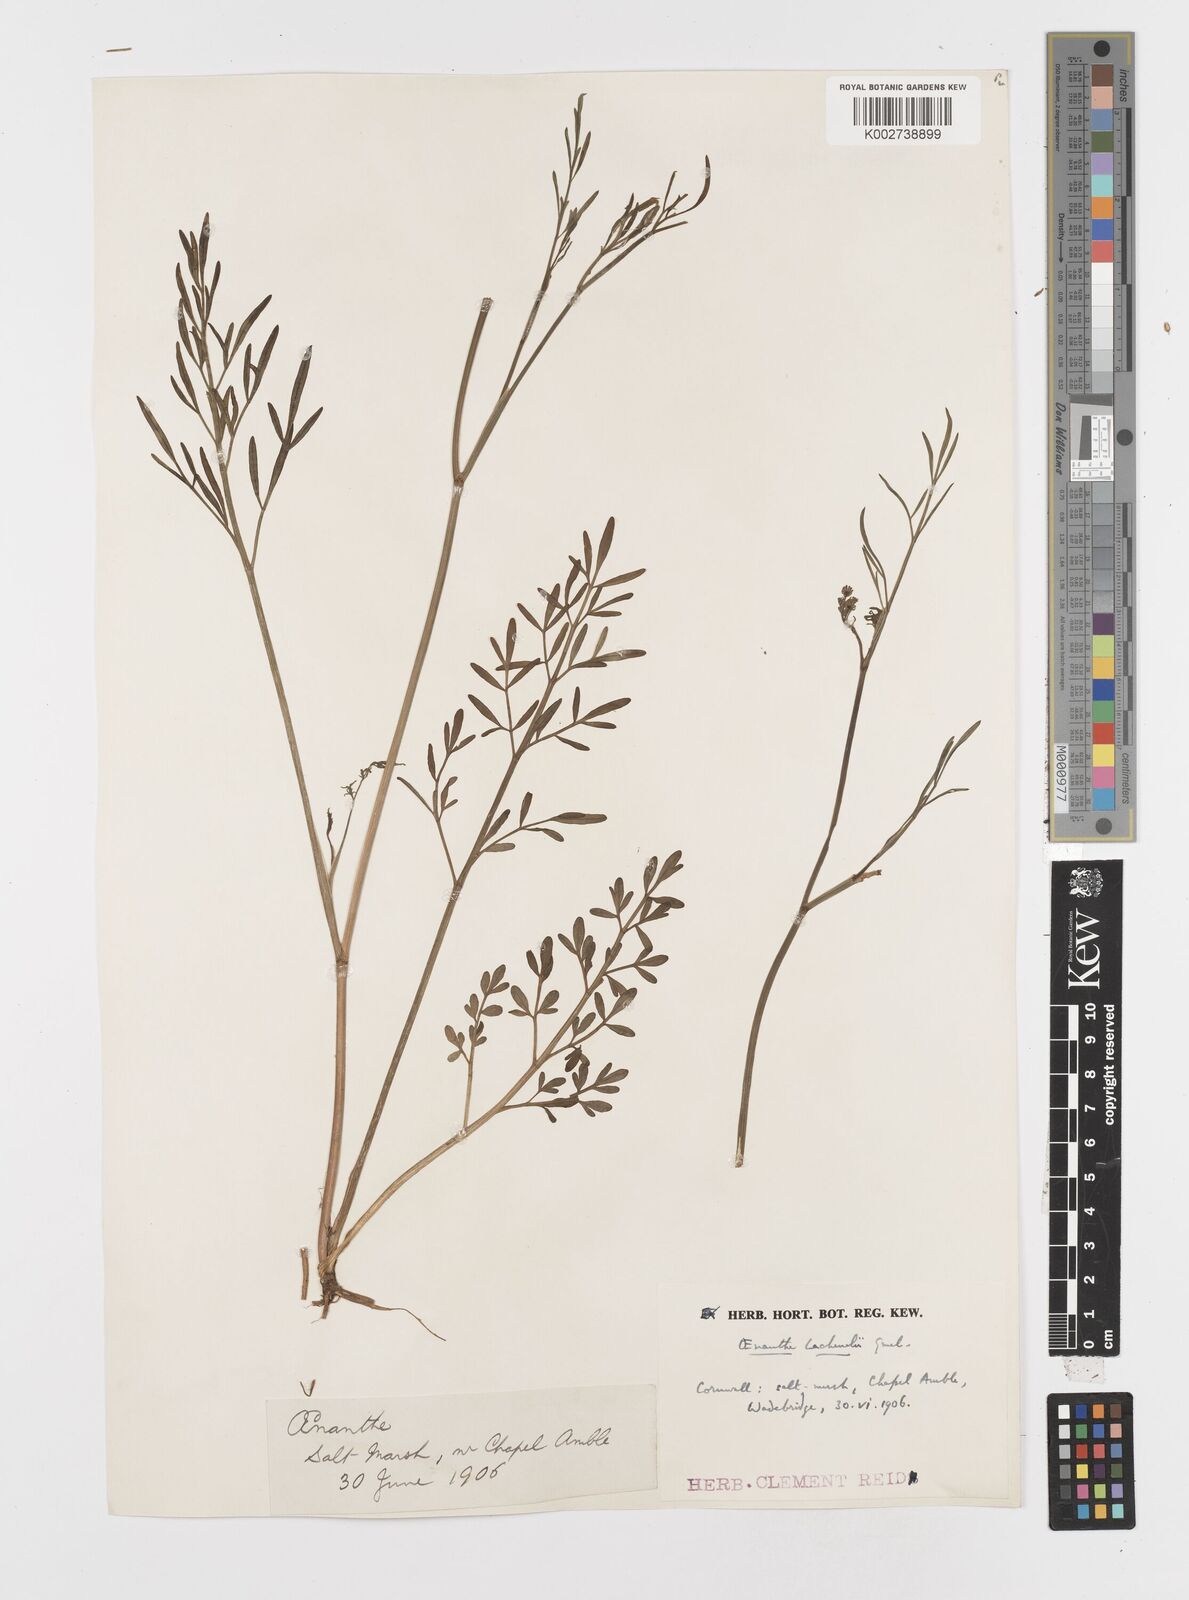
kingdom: Plantae
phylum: Tracheophyta
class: Magnoliopsida
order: Apiales
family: Apiaceae
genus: Oenanthe
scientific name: Oenanthe lachenalii
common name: Parsley water-dropwort
